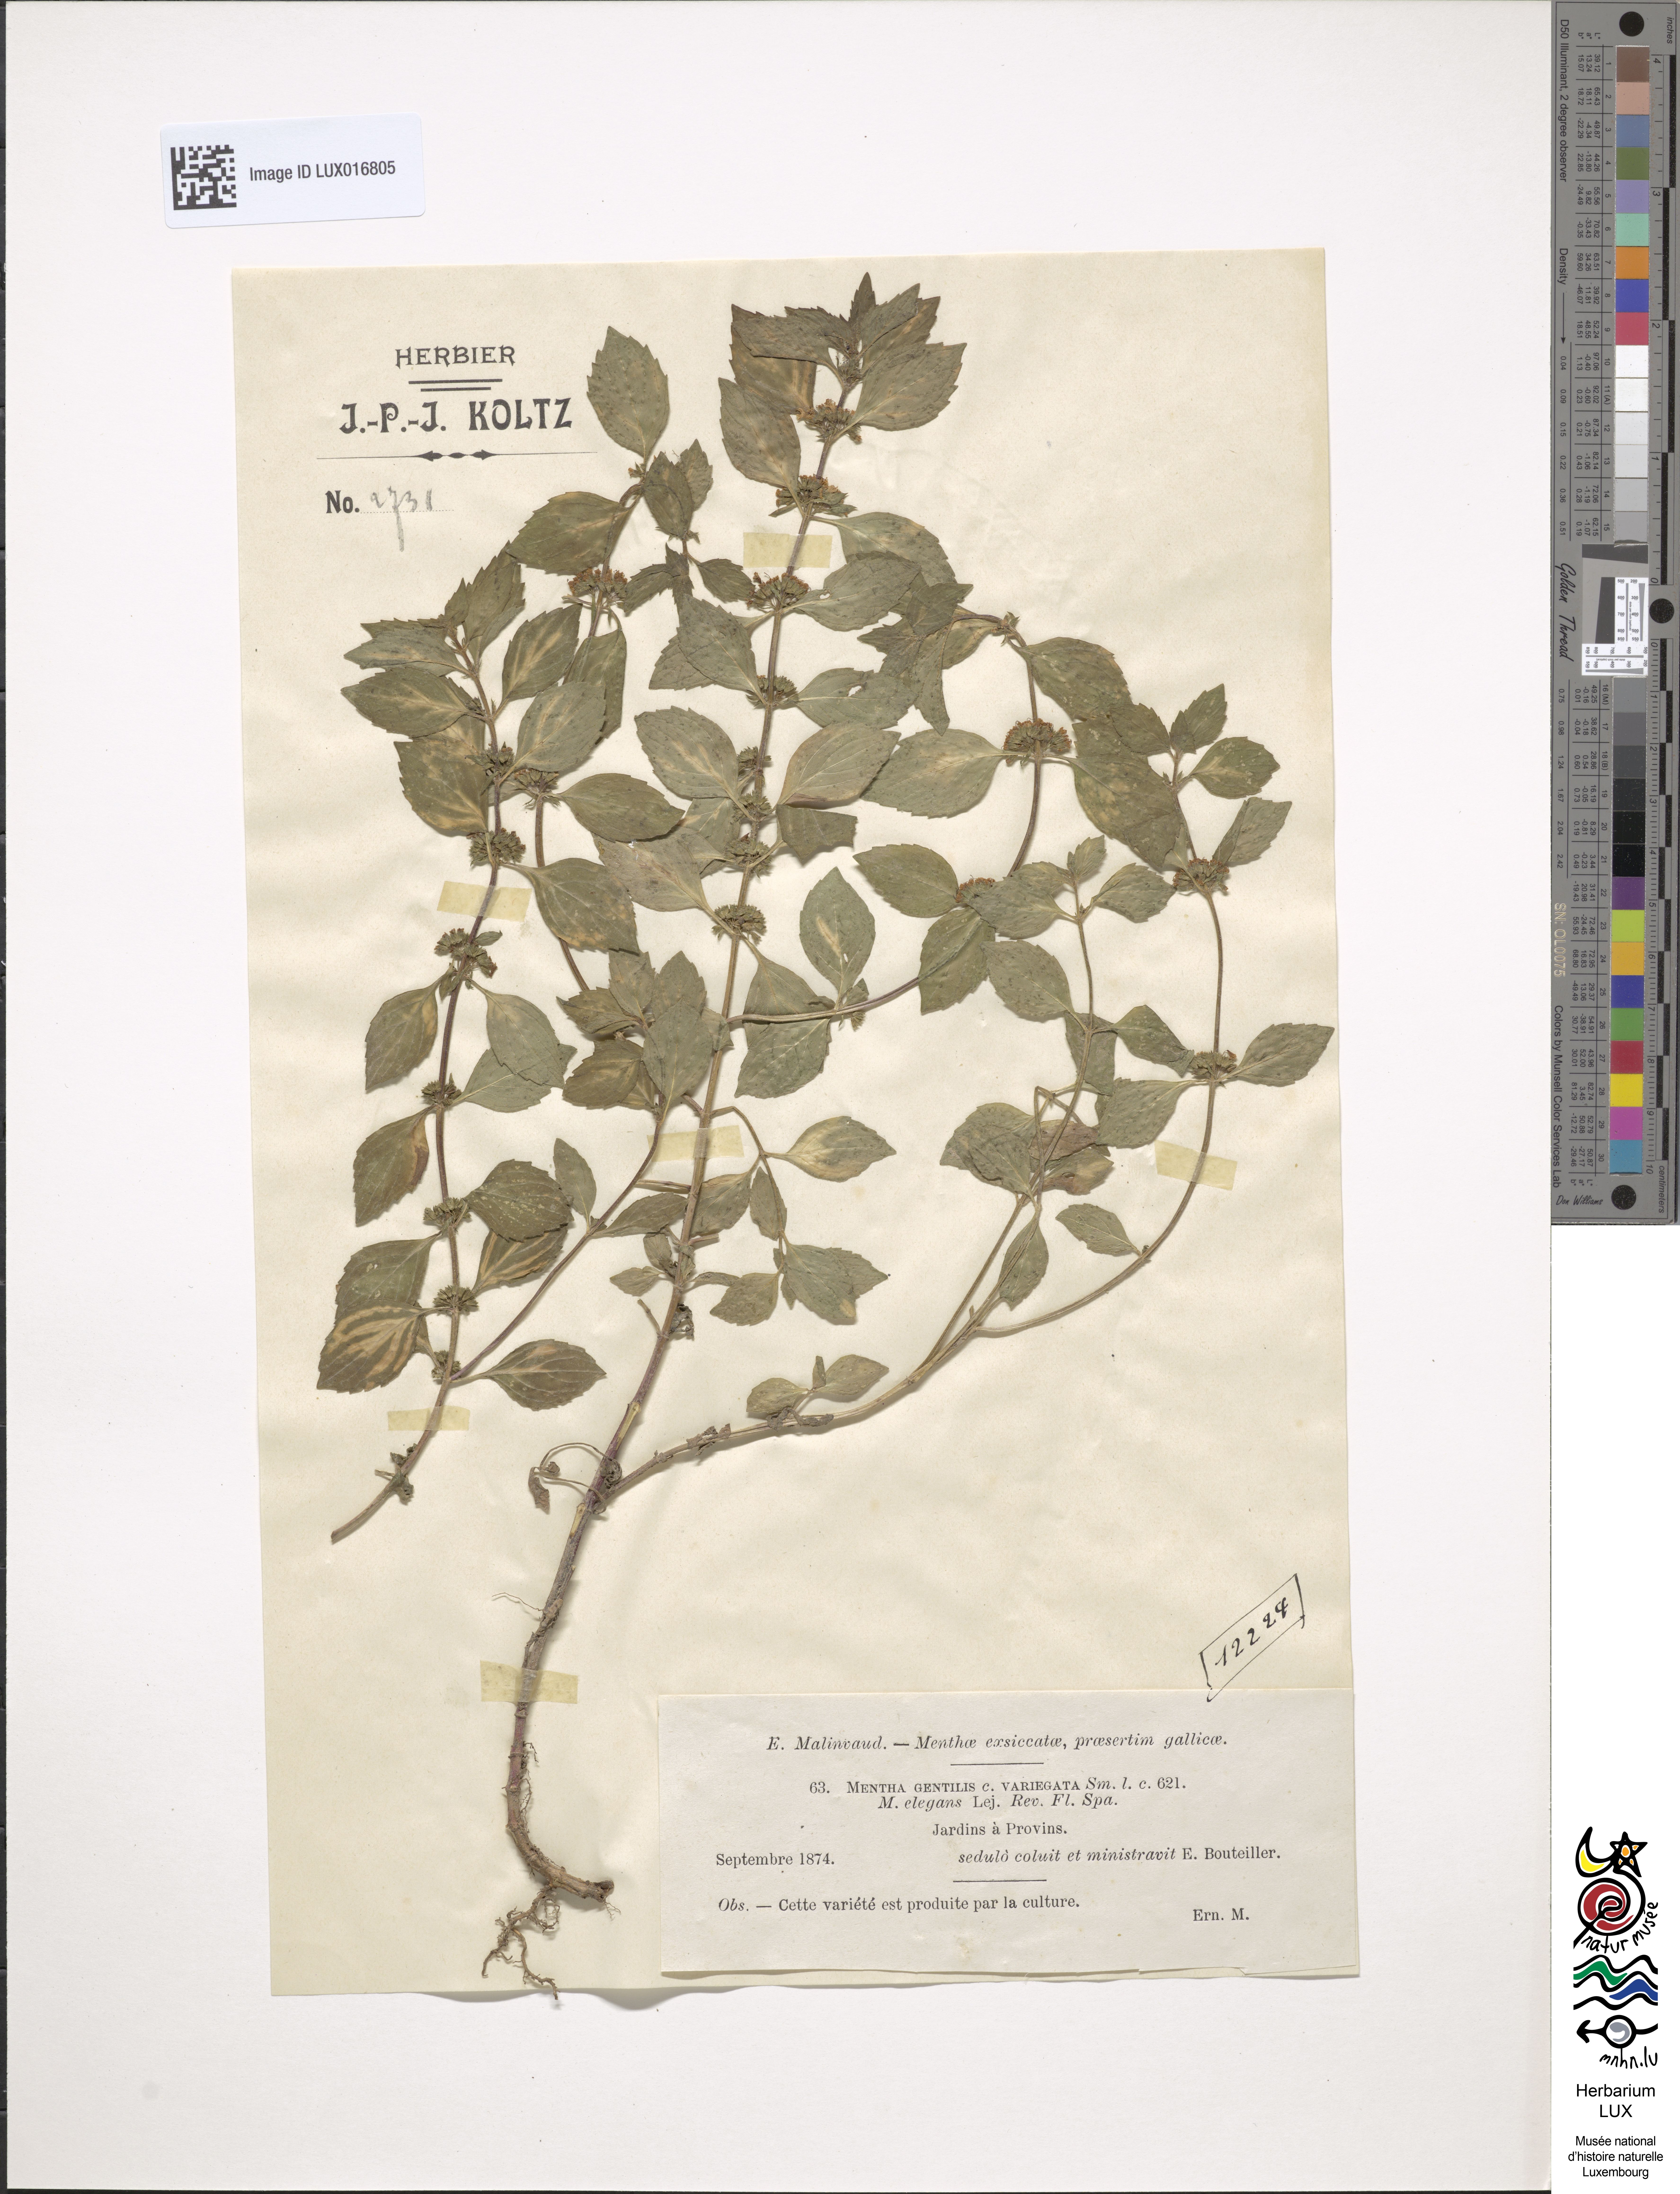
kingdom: Plantae
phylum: Tracheophyta
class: Magnoliopsida
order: Lamiales
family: Lamiaceae
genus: Mentha
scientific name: Mentha arvensis
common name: Corn mint
